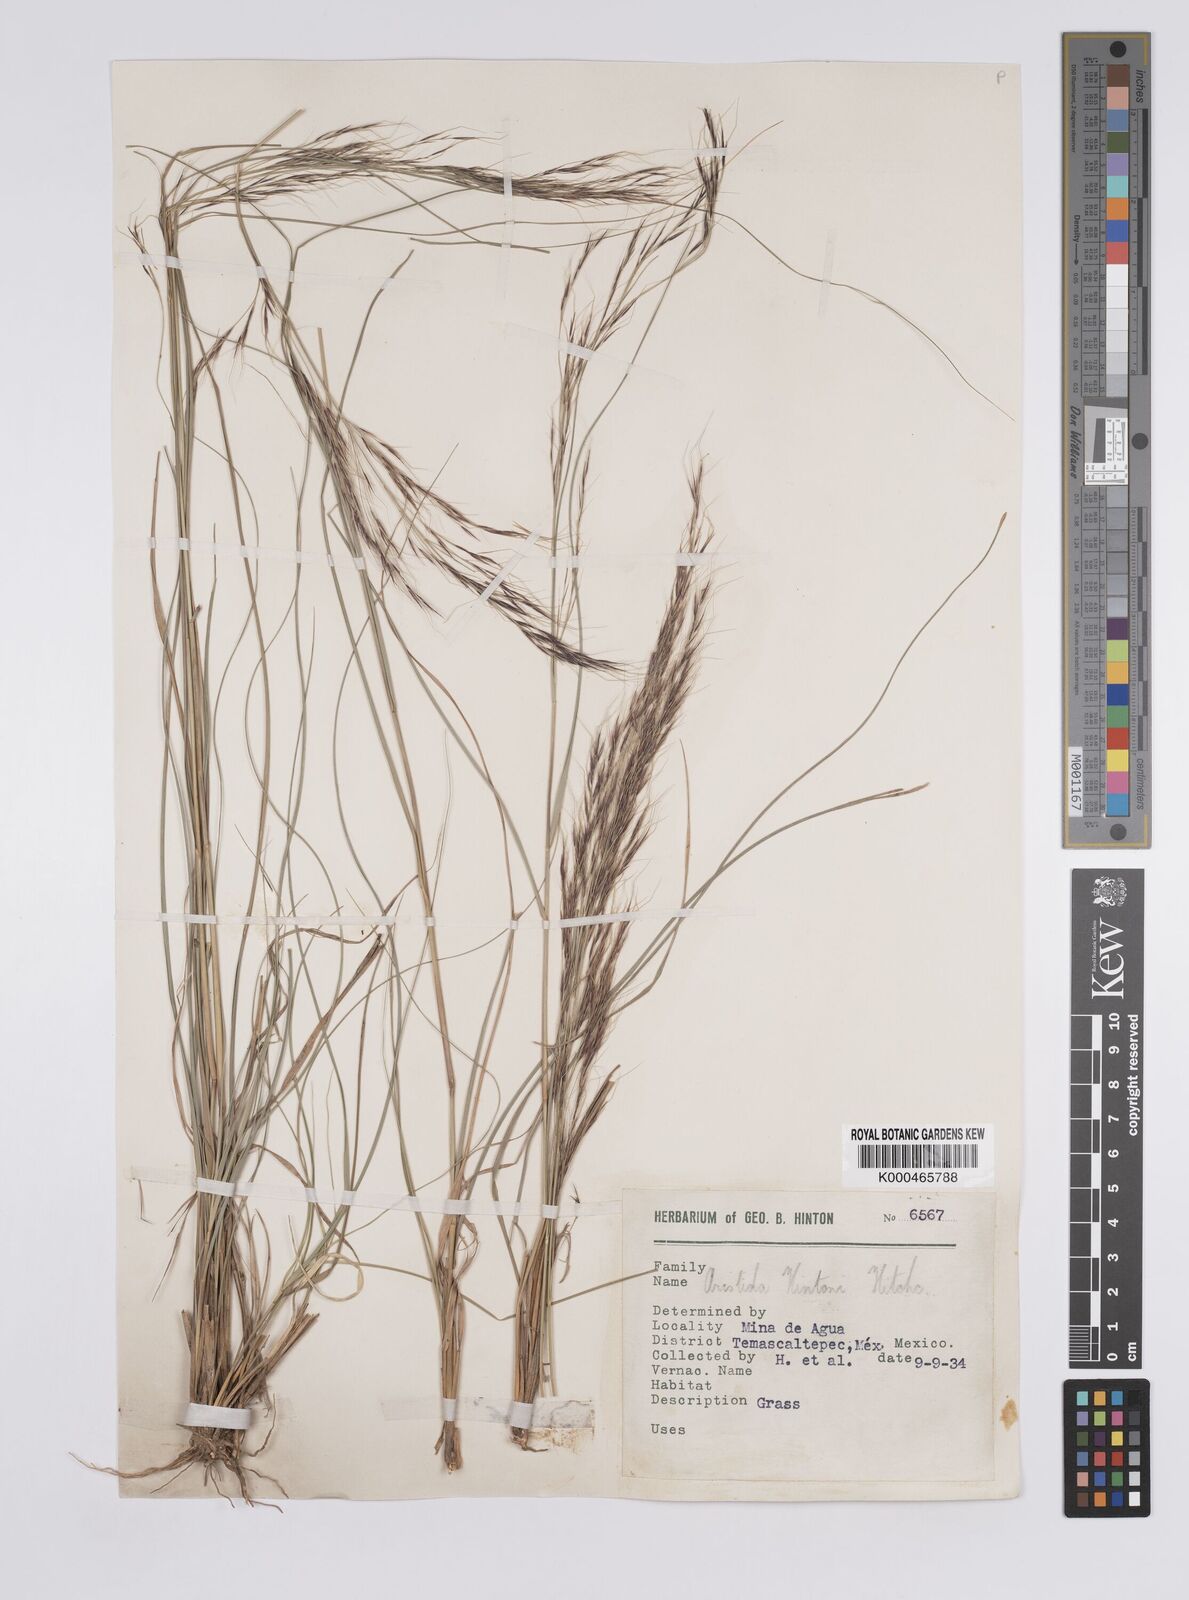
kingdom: Plantae
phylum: Tracheophyta
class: Liliopsida
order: Poales
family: Poaceae
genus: Aristida
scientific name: Aristida hintonii
